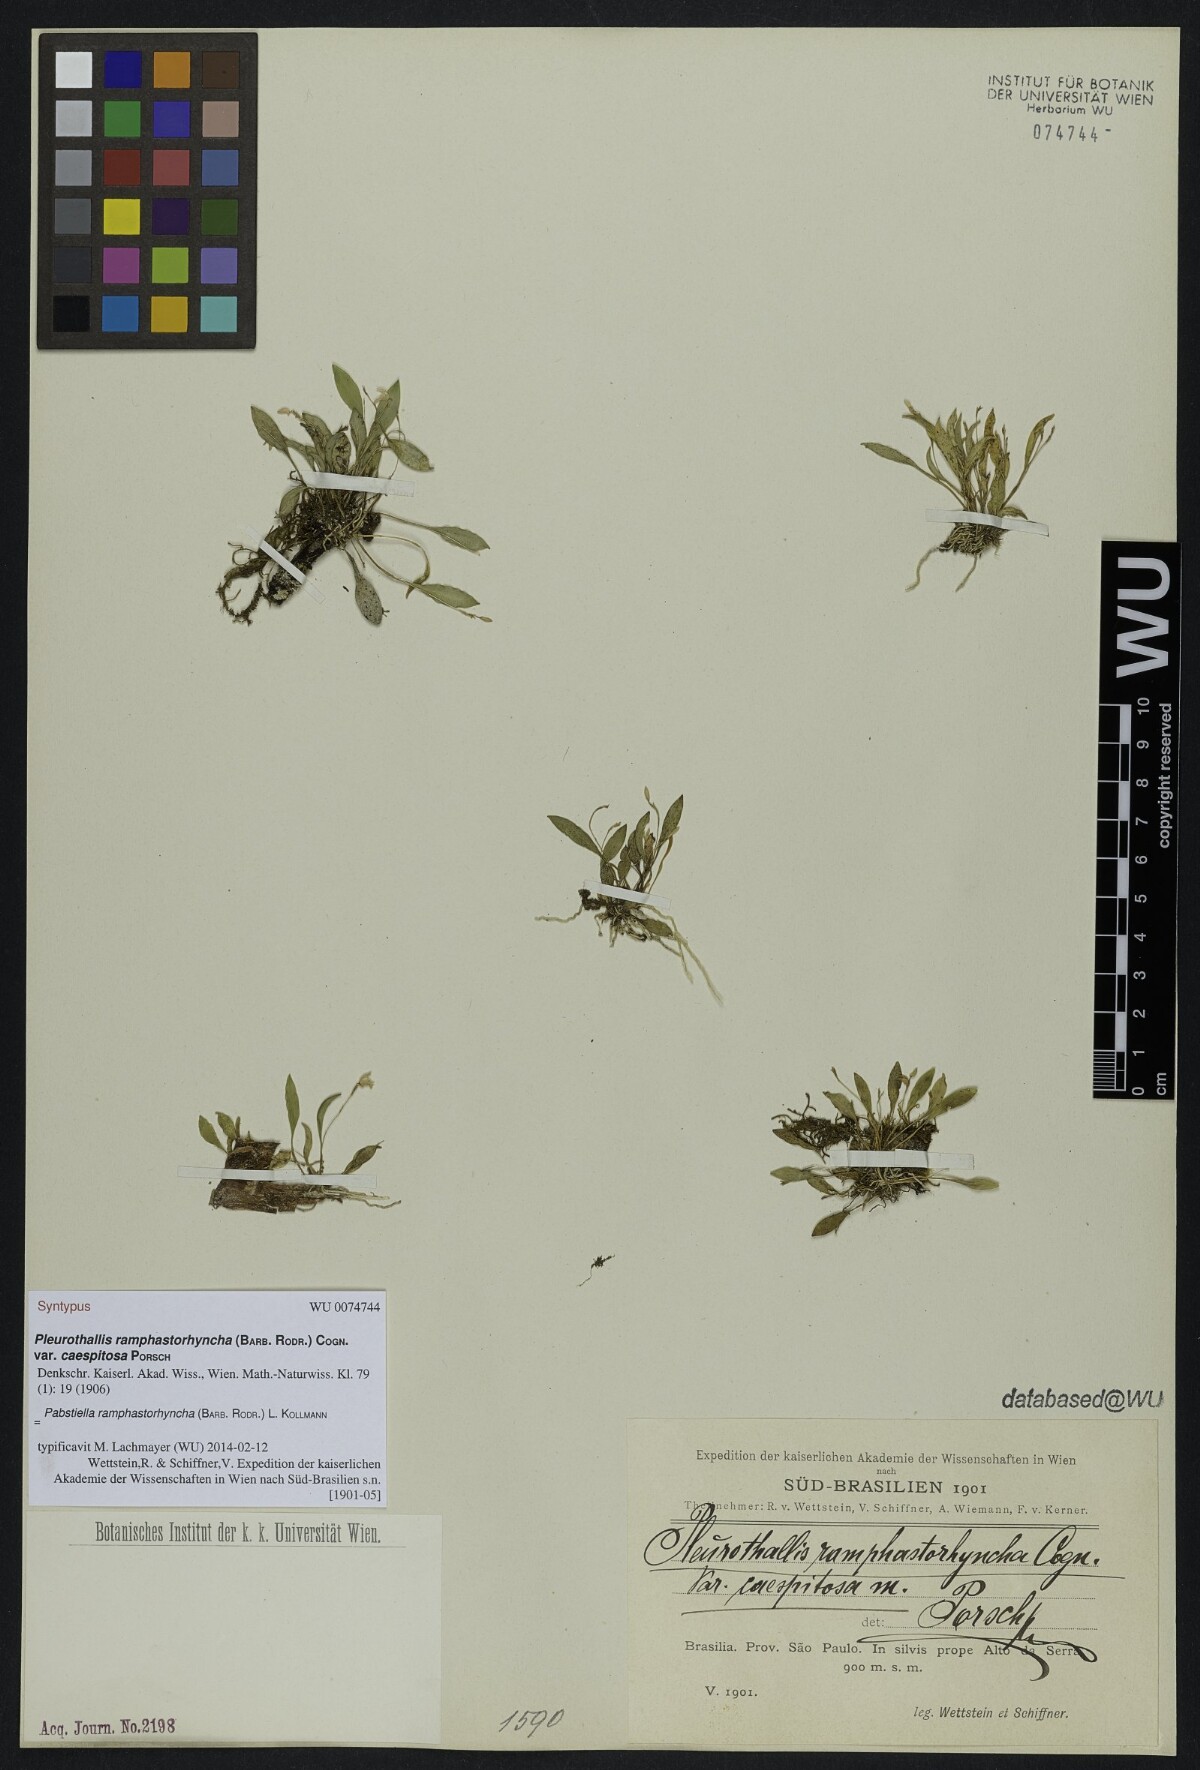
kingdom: Plantae
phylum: Tracheophyta
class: Liliopsida
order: Asparagales
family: Orchidaceae
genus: Pabstiella
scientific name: Pabstiella ramphastorhyncha
